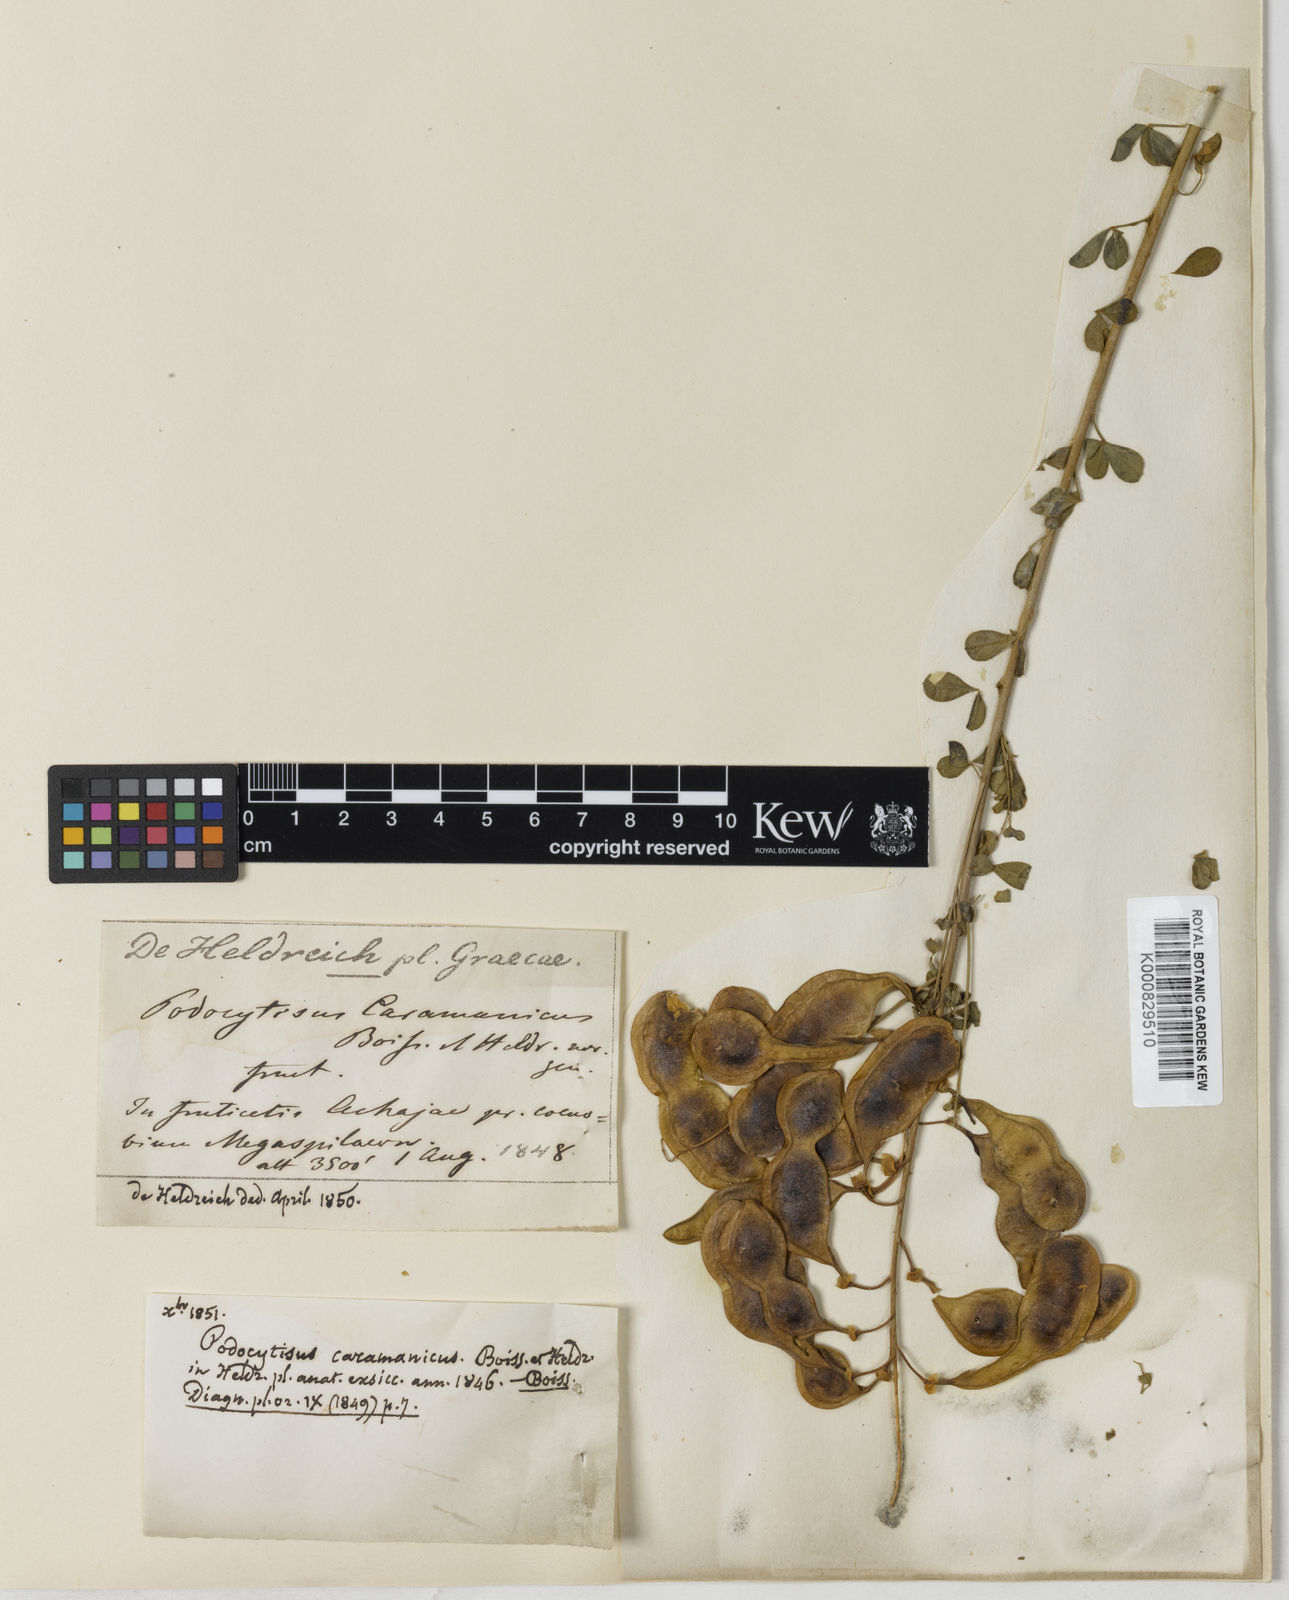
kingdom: Plantae
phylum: Tracheophyta
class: Magnoliopsida
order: Fabales
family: Fabaceae
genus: Podocytisus
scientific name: Podocytisus caramanicus
